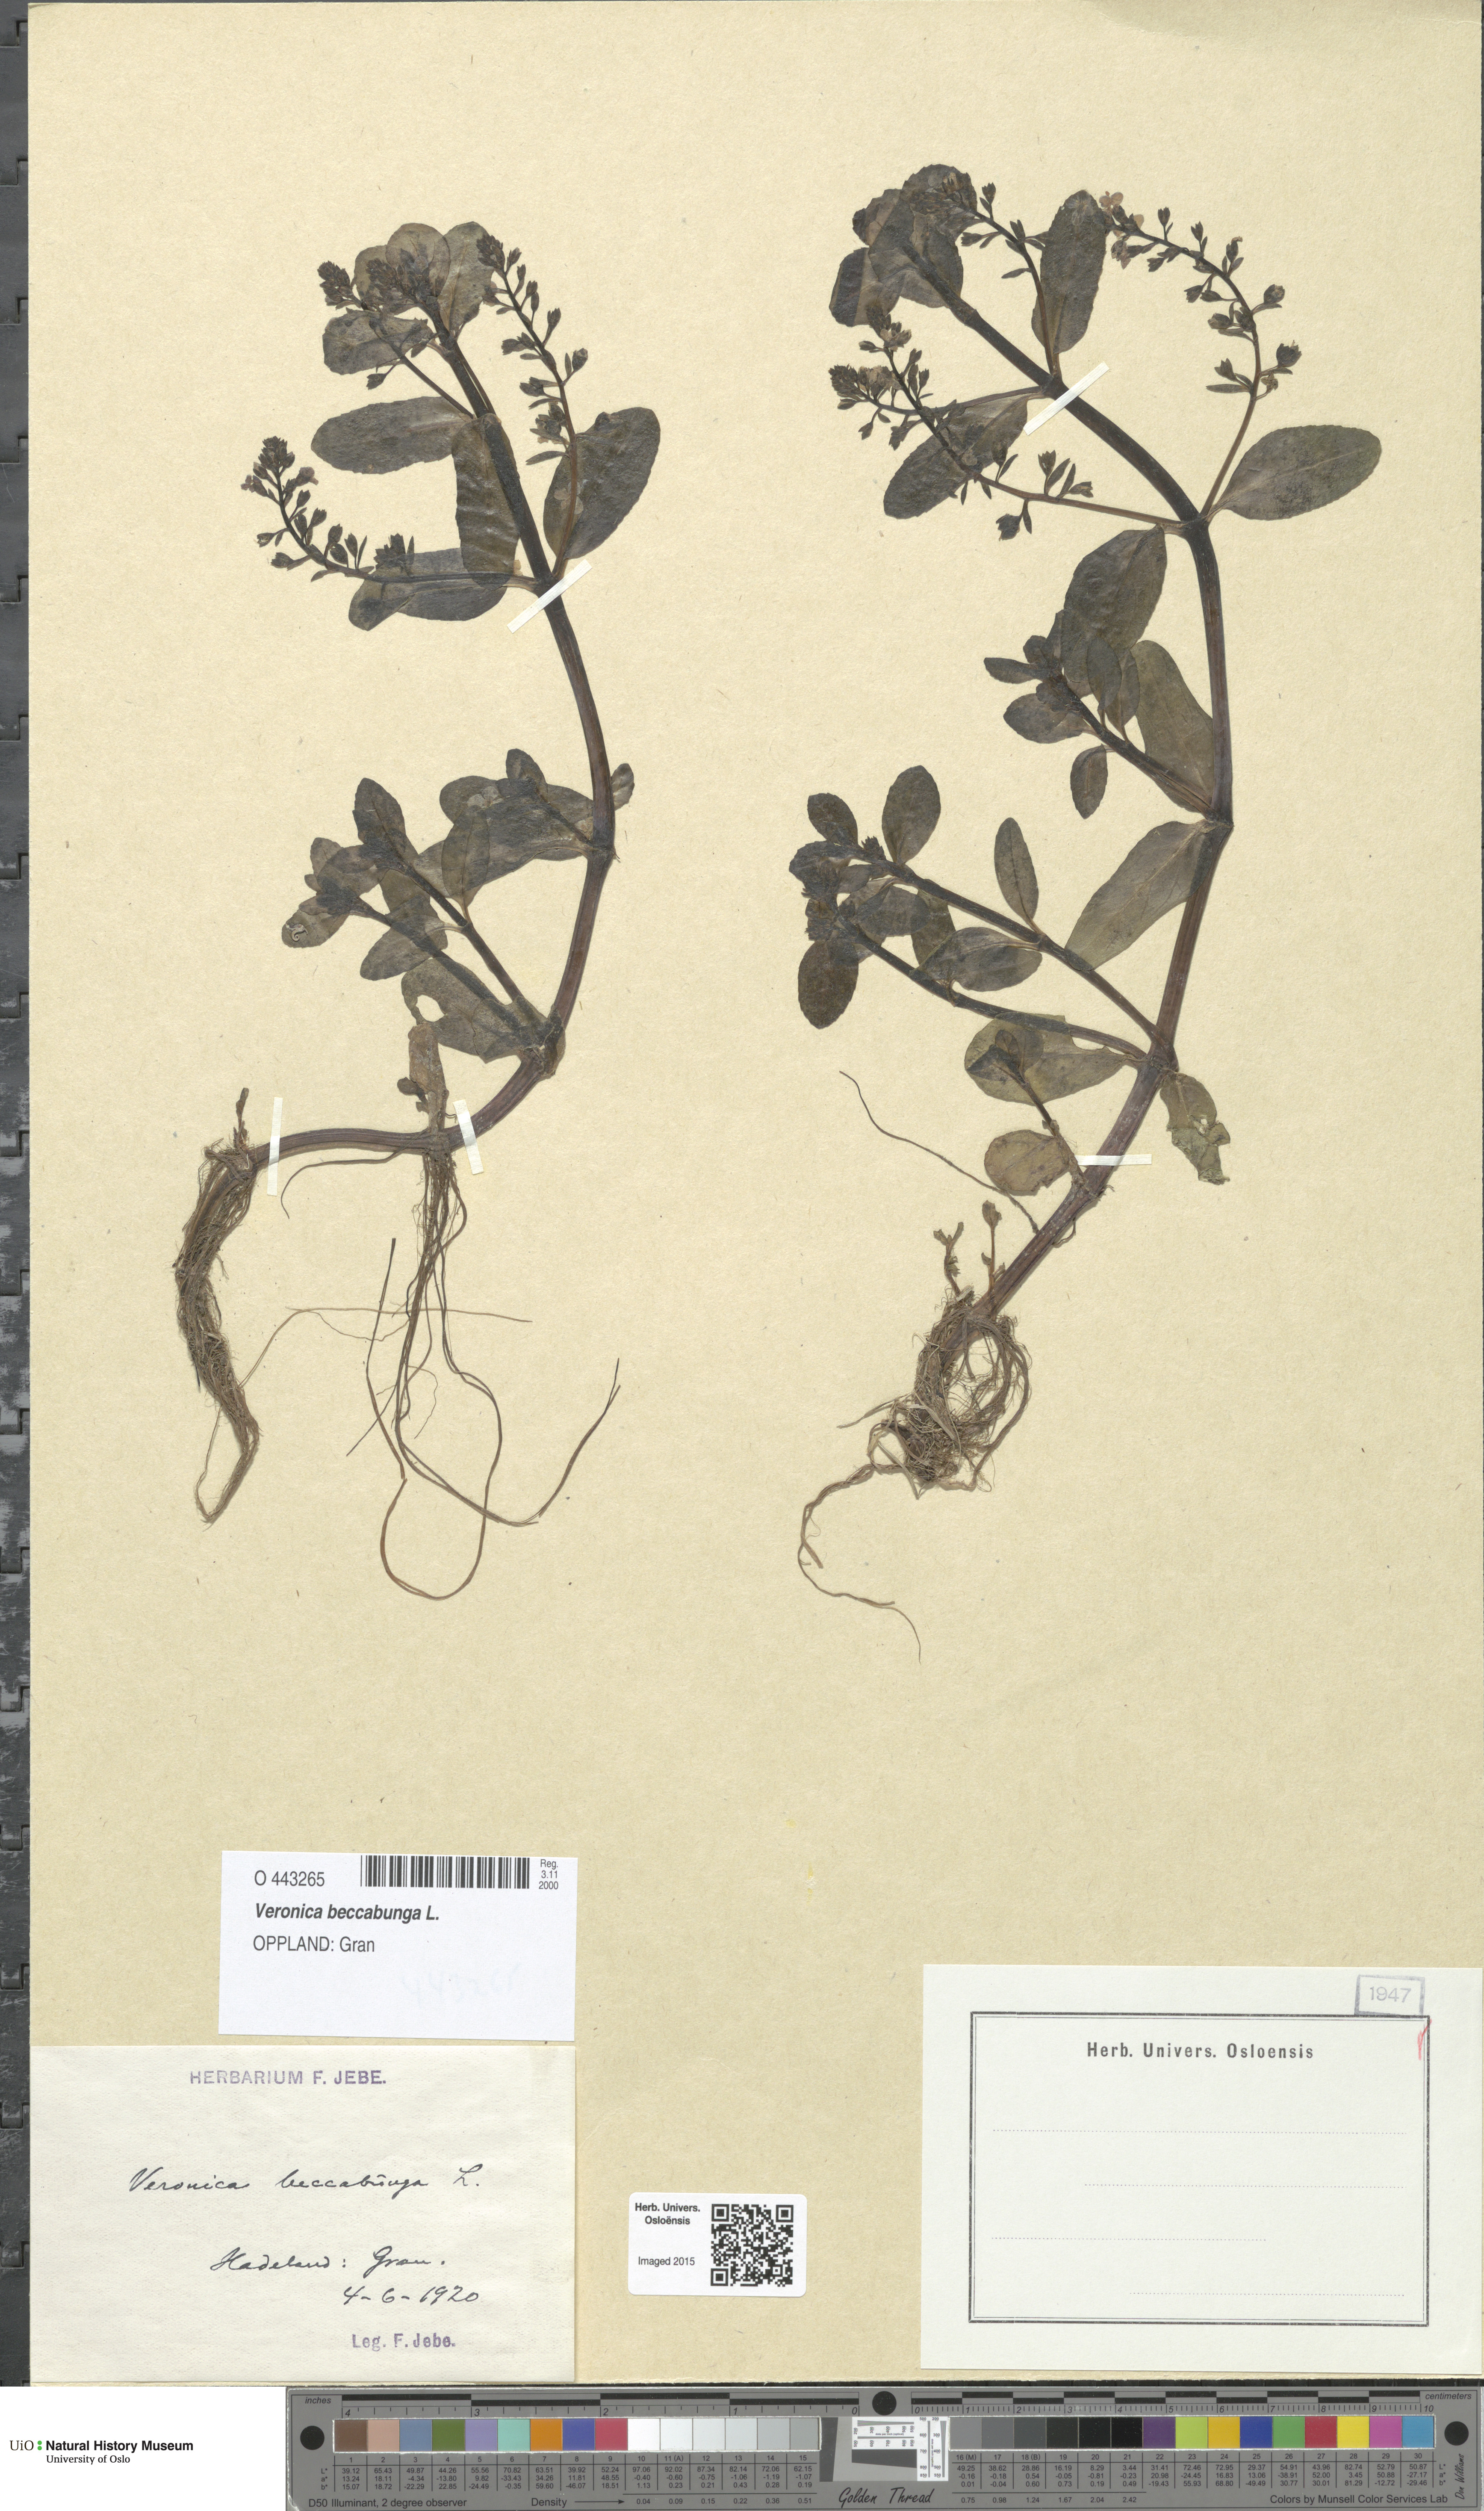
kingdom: Plantae
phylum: Tracheophyta
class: Magnoliopsida
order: Lamiales
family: Plantaginaceae
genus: Veronica
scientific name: Veronica beccabunga
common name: Brooklime
